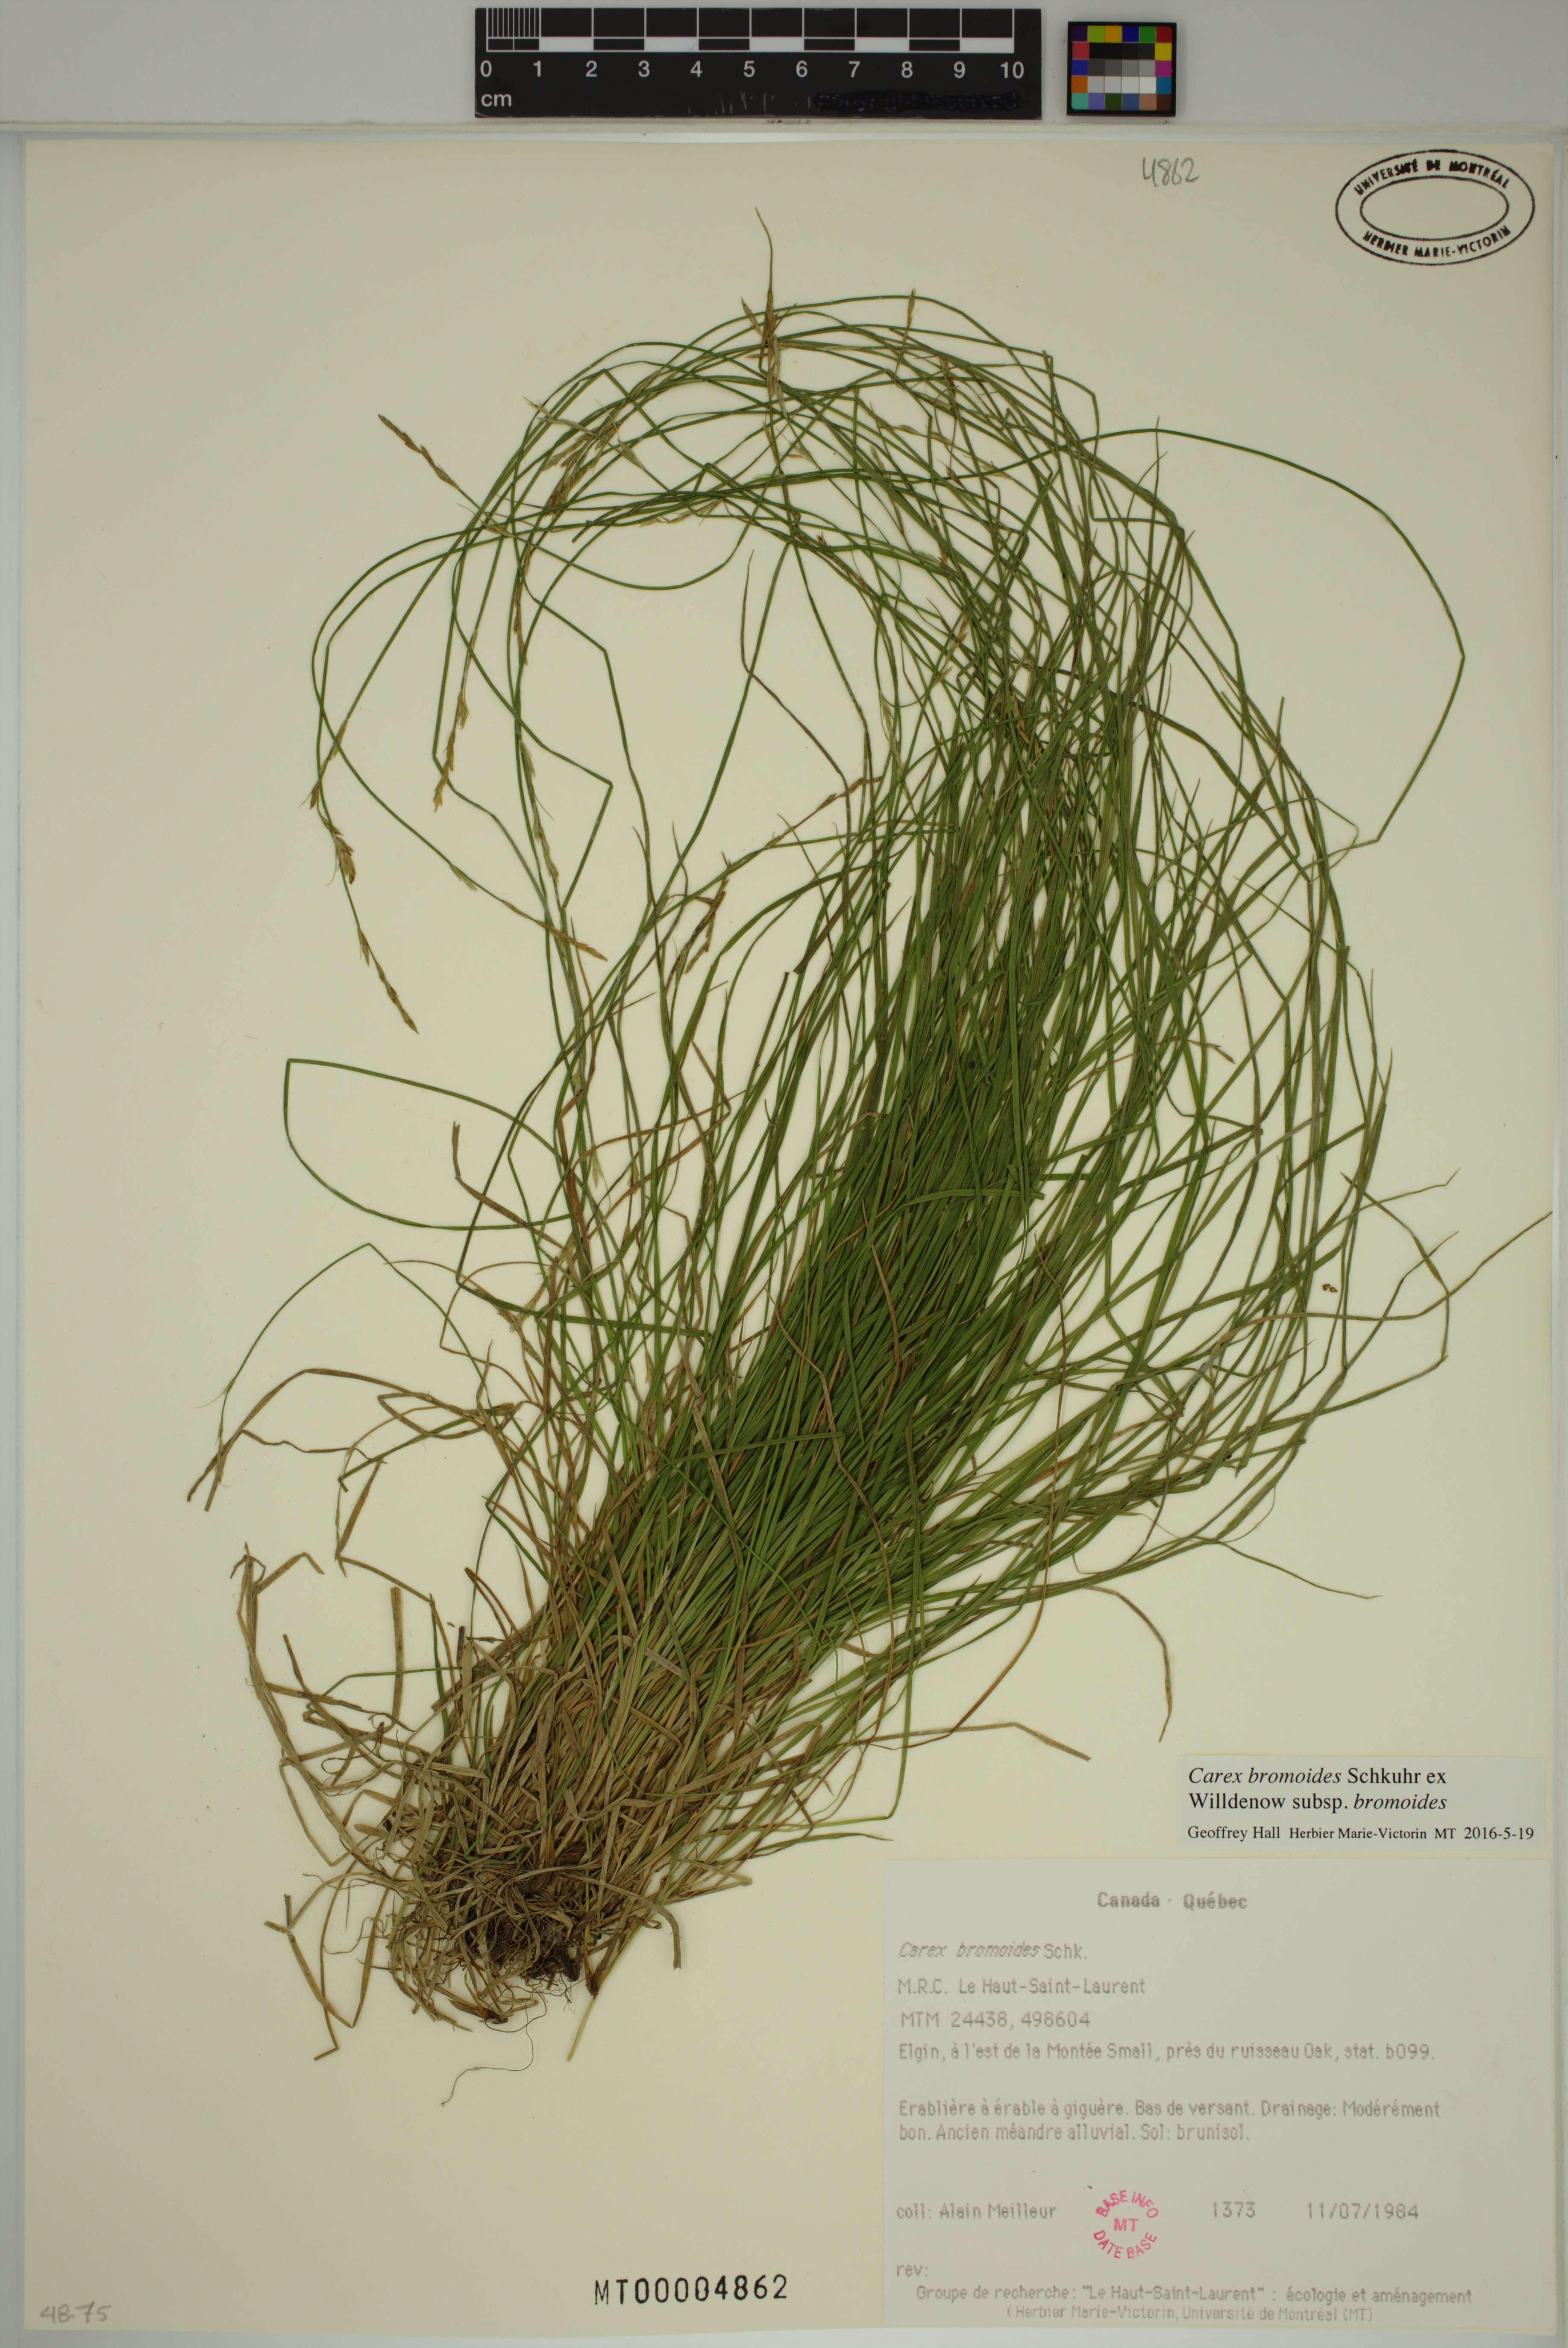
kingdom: Plantae
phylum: Tracheophyta
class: Liliopsida
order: Poales
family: Cyperaceae
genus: Carex
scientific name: Carex bromoides
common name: Brome hummock sedge
